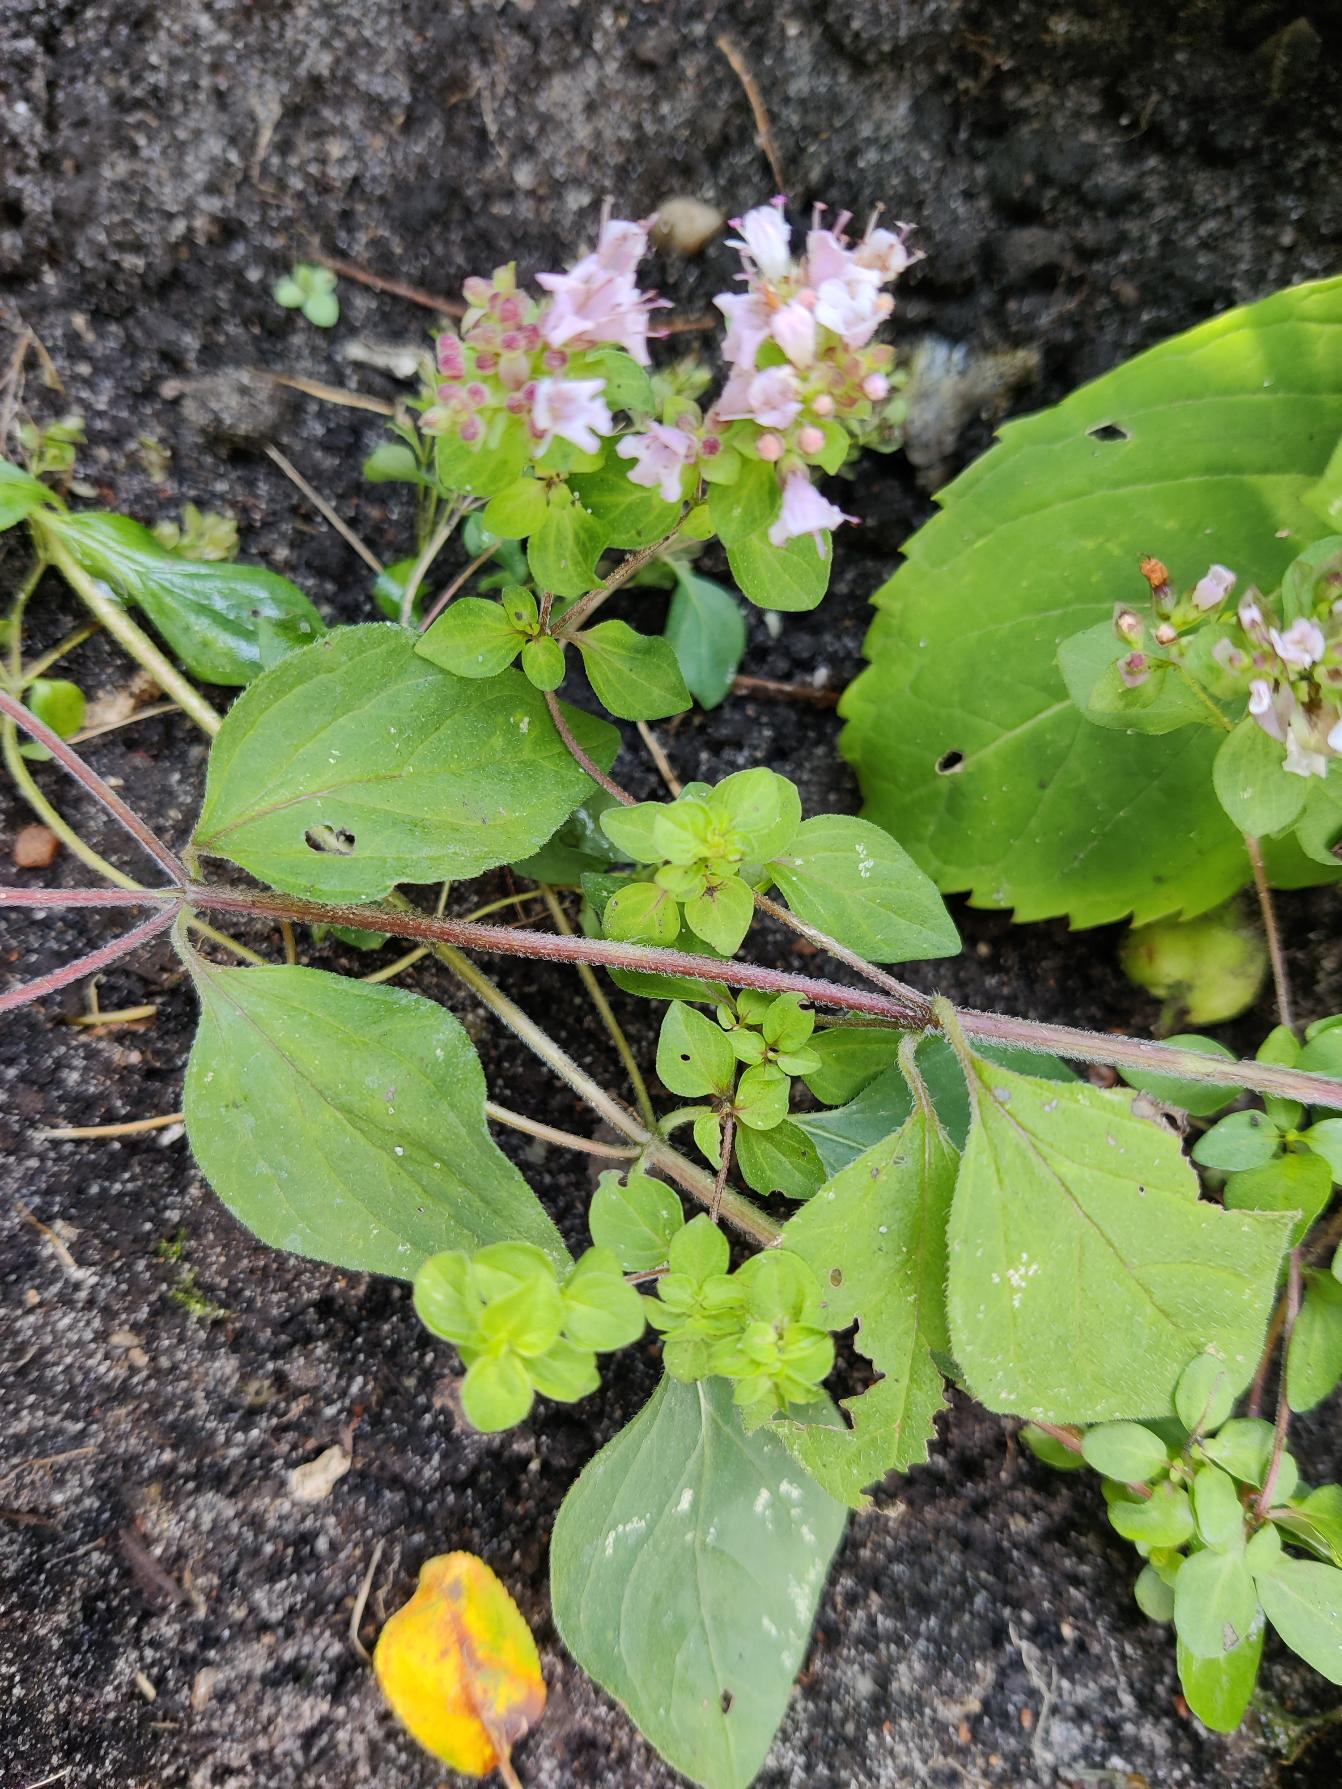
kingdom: Plantae
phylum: Tracheophyta
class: Magnoliopsida
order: Lamiales
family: Lamiaceae
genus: Origanum
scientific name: Origanum vulgare
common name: Merian
